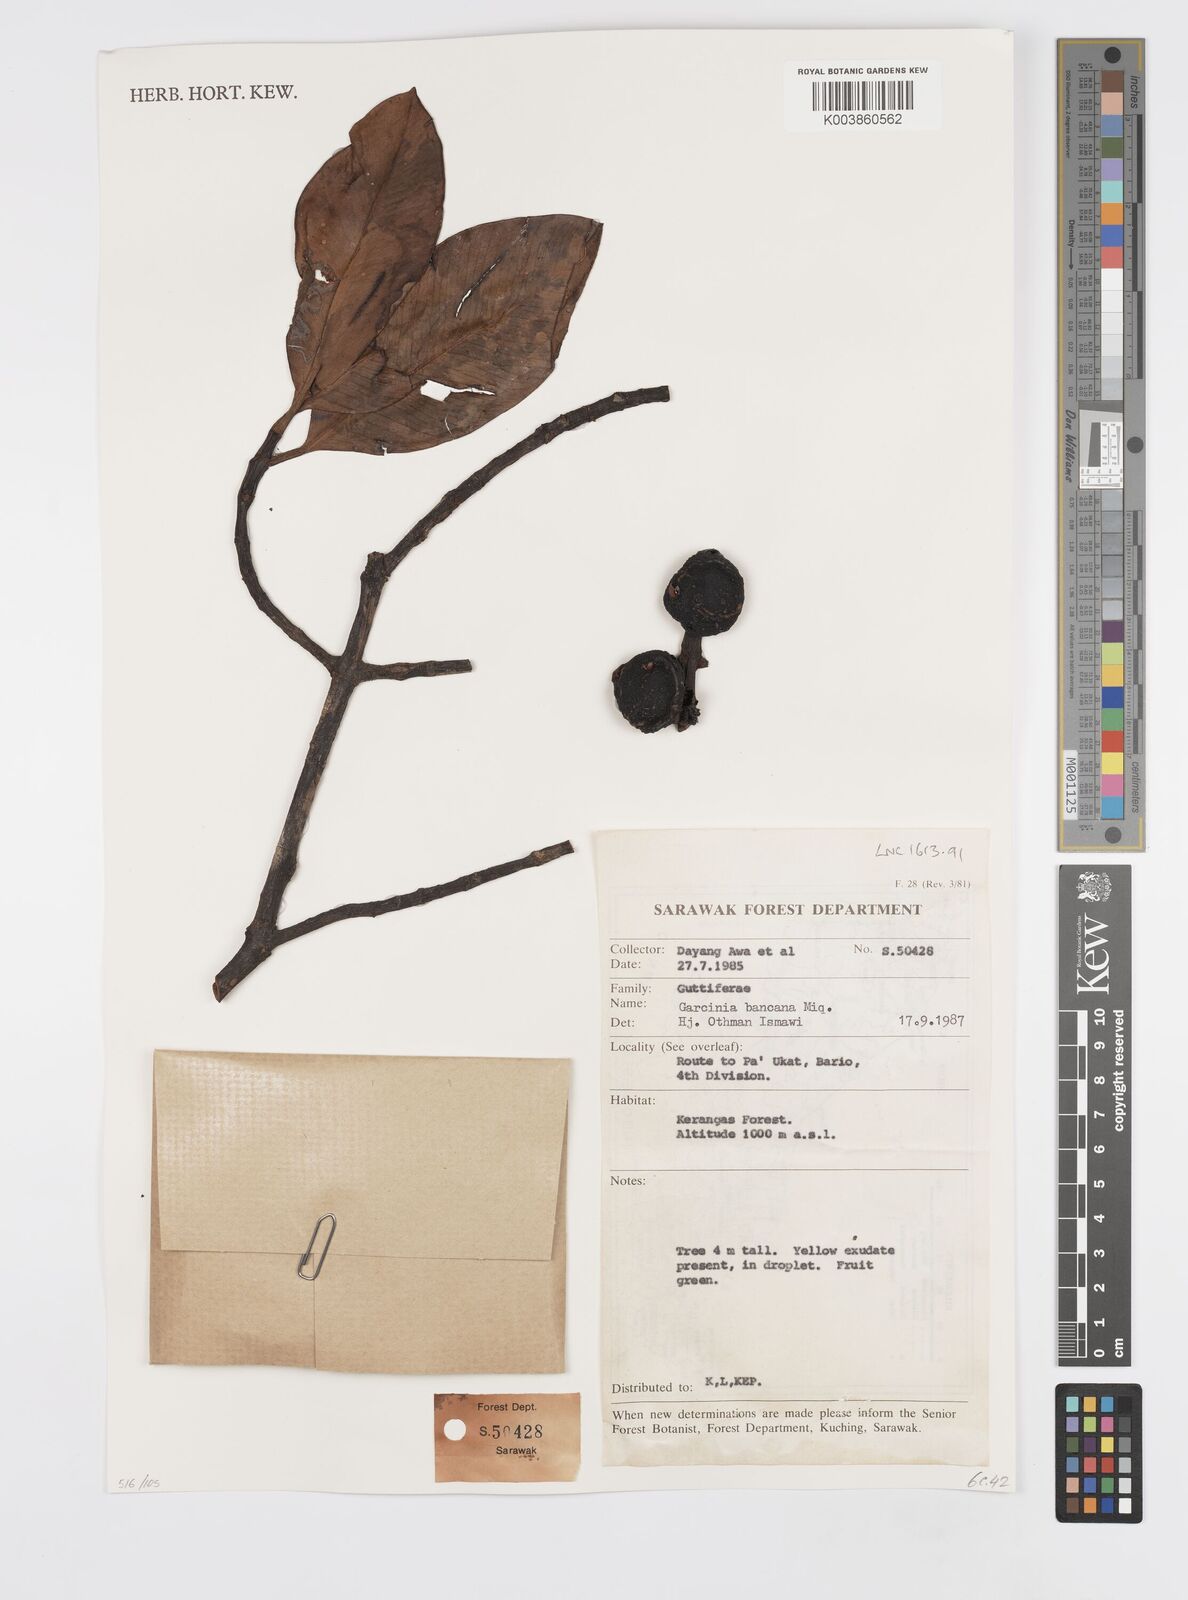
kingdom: Plantae
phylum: Tracheophyta
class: Magnoliopsida
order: Malpighiales
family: Clusiaceae
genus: Garcinia
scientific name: Garcinia bancana
